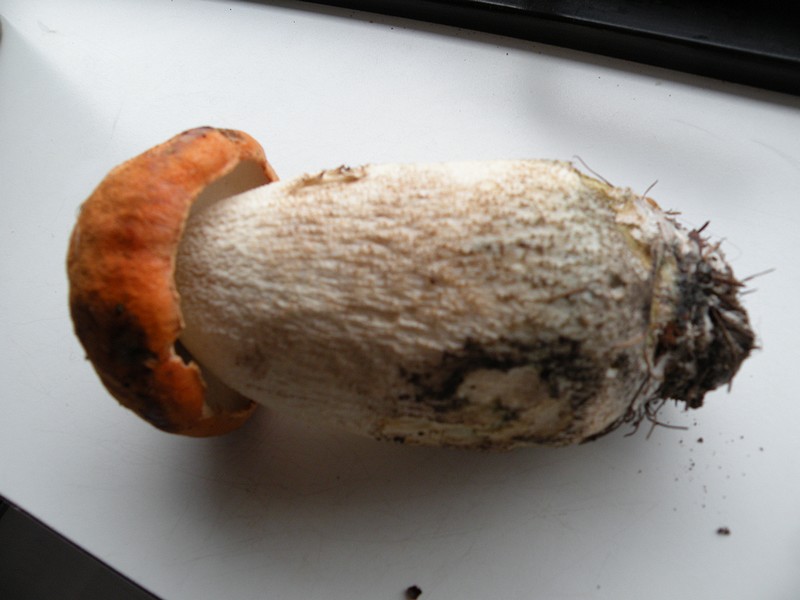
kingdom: Fungi
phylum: Basidiomycota
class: Agaricomycetes
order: Boletales
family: Boletaceae
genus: Leccinum
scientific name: Leccinum aurantiacum
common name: rustrød skælrørhat
